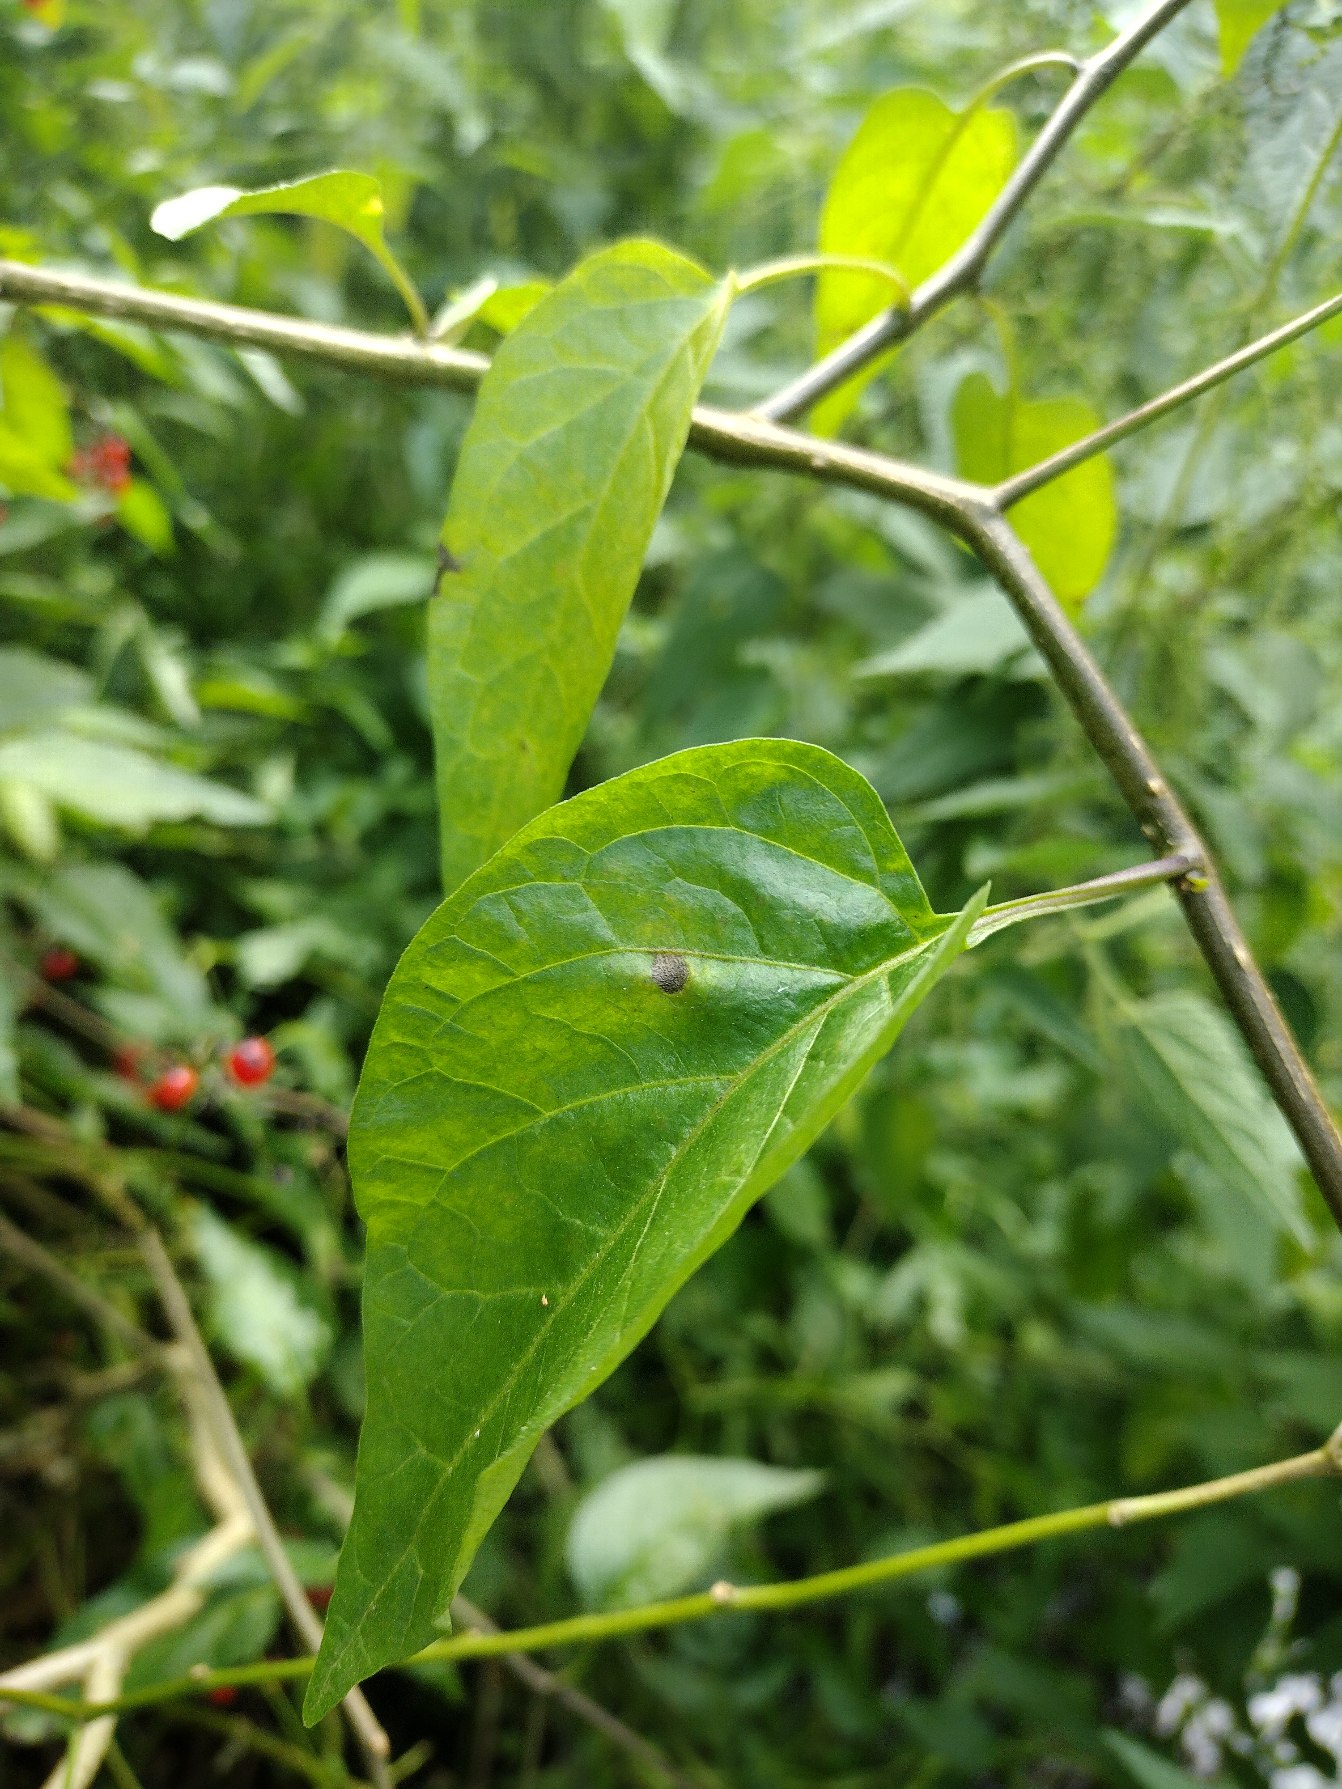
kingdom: Plantae
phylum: Tracheophyta
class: Magnoliopsida
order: Solanales
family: Solanaceae
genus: Solanum
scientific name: Solanum dulcamara
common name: Bittersød natskygge
